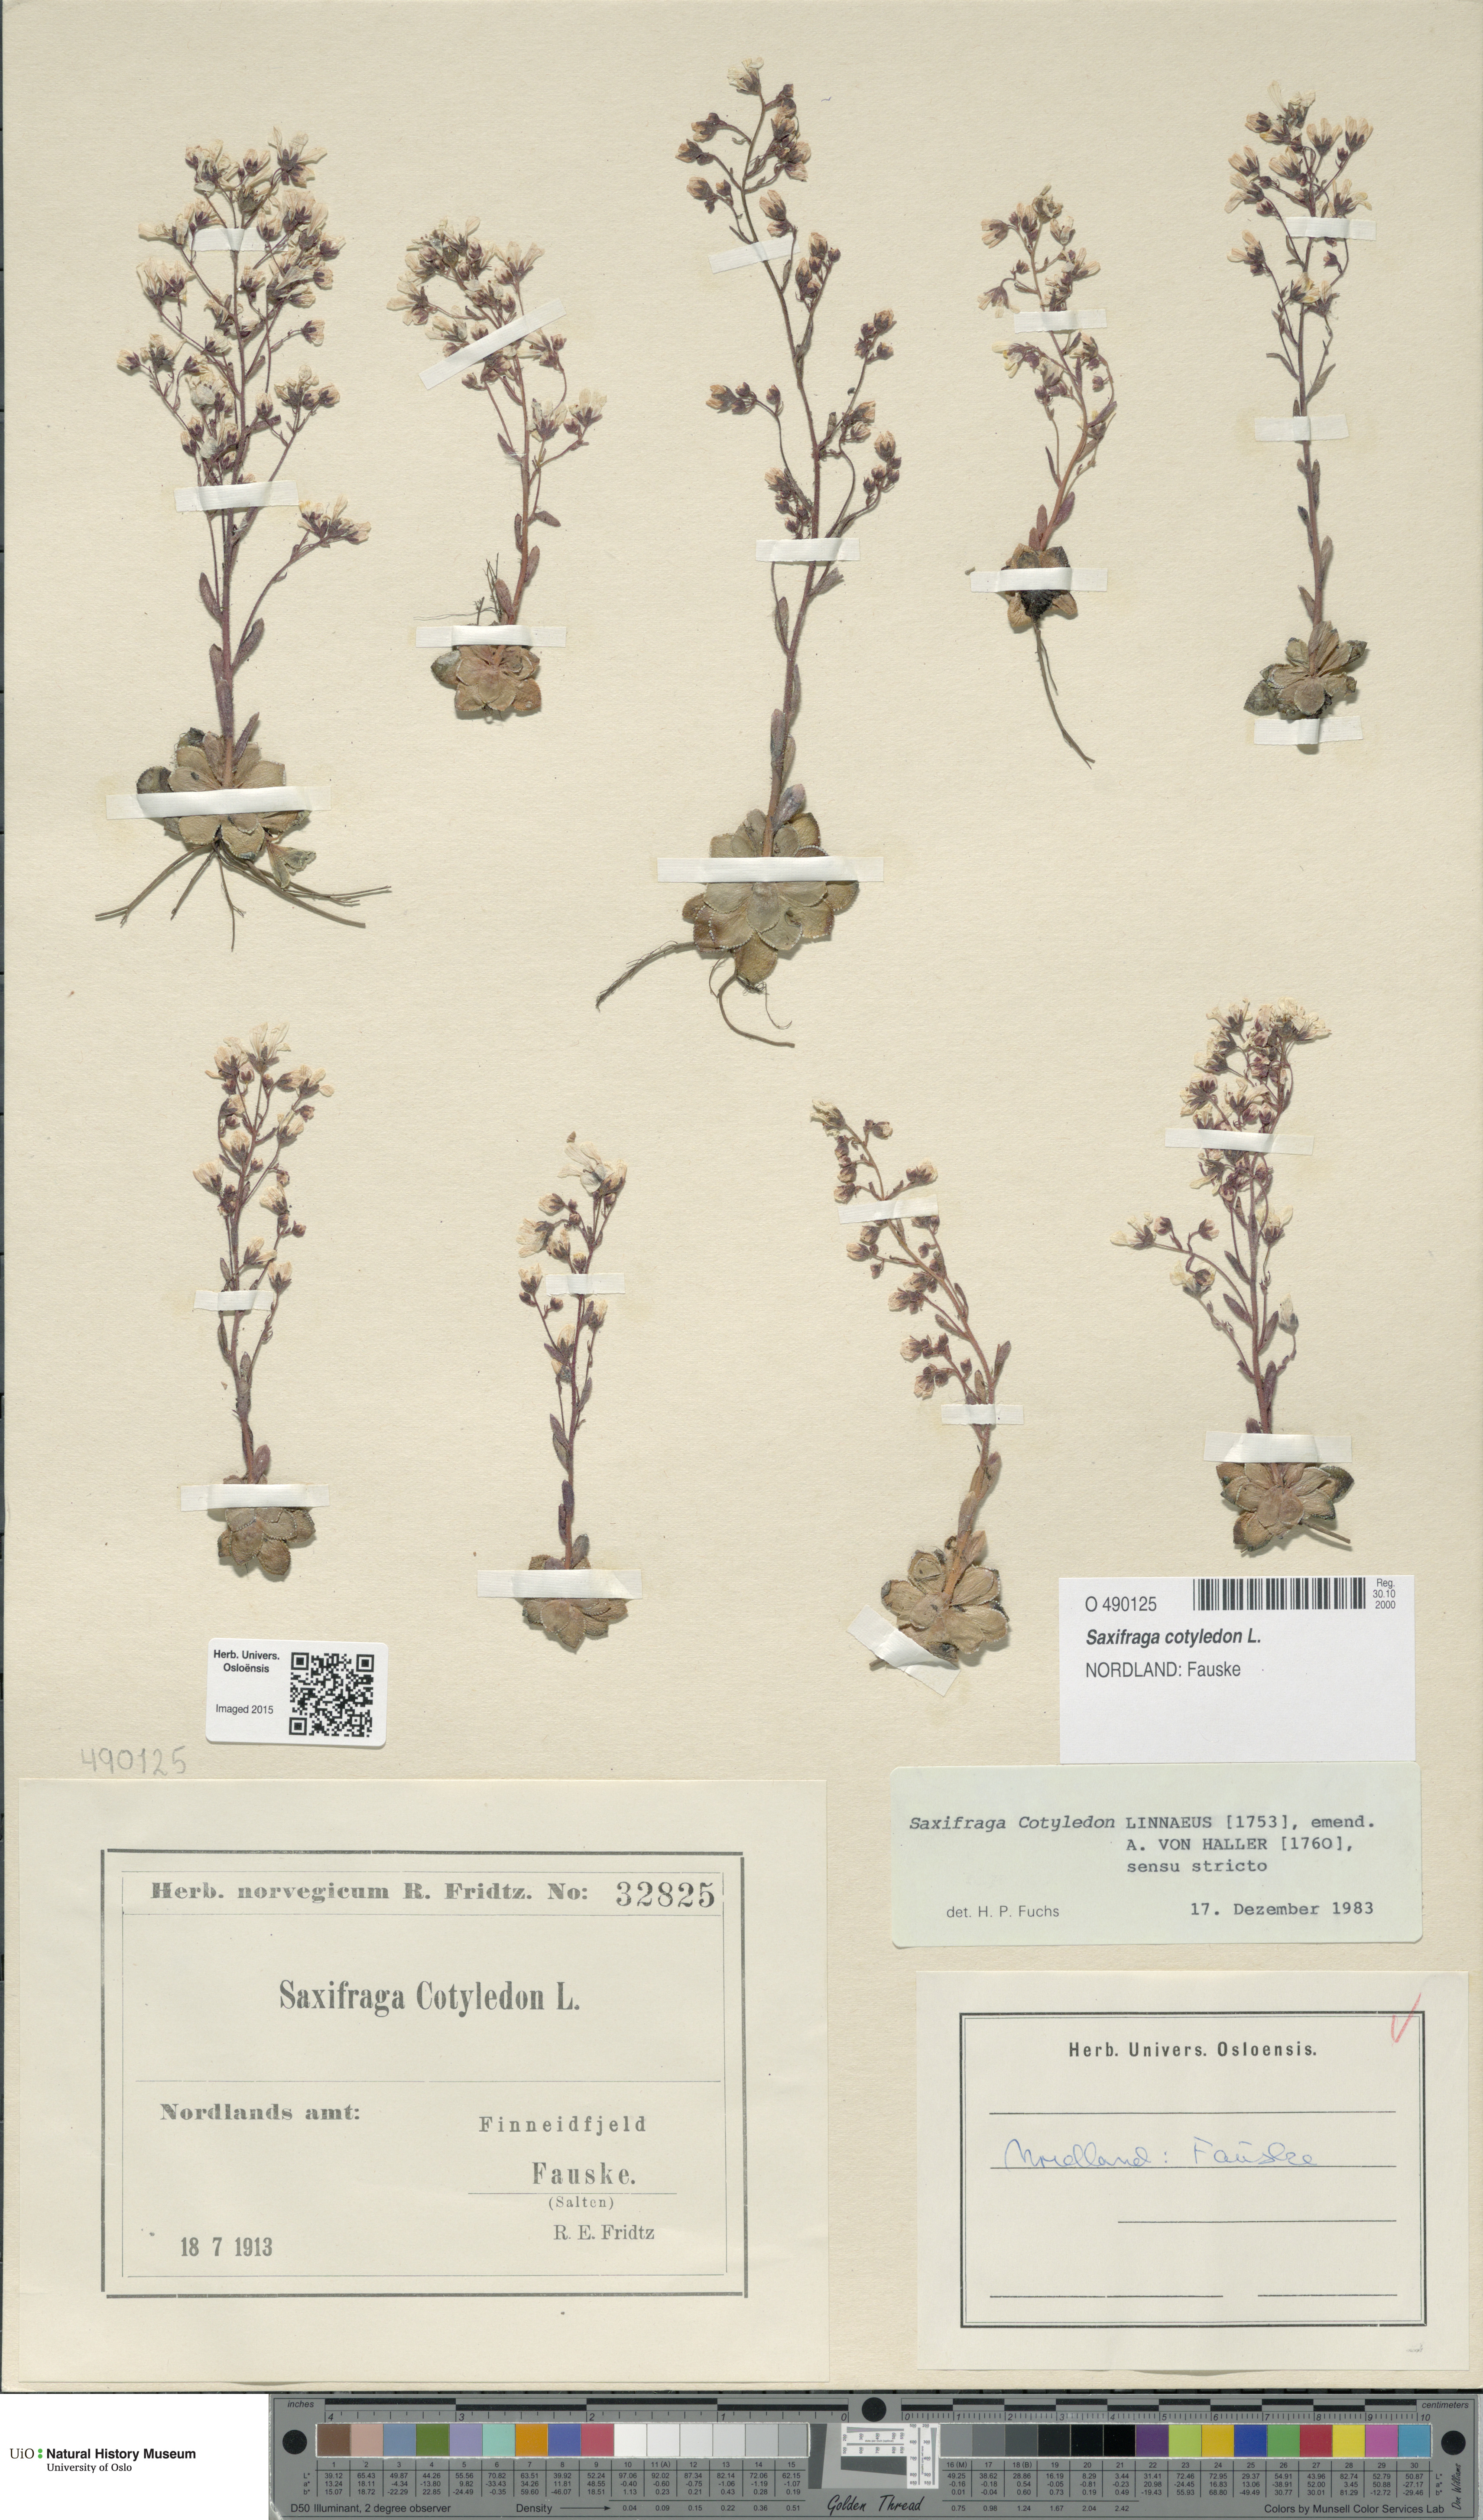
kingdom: Plantae
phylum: Tracheophyta
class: Magnoliopsida
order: Saxifragales
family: Saxifragaceae
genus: Saxifraga
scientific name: Saxifraga cotyledon
